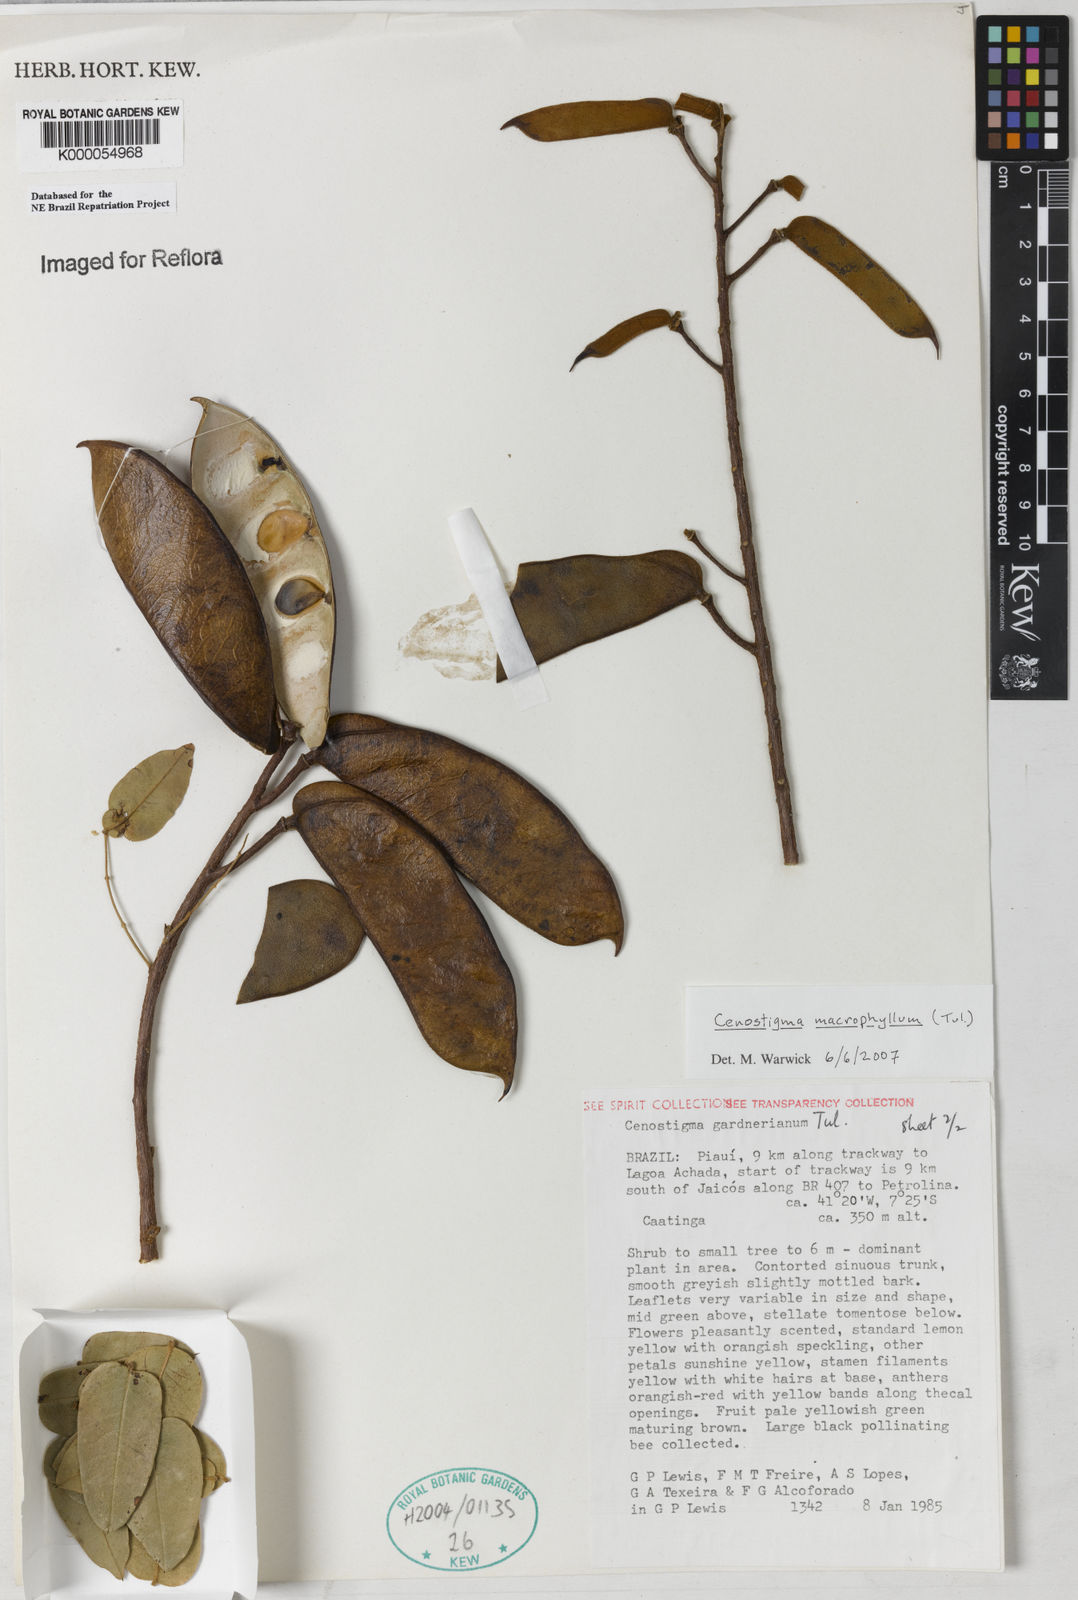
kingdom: Plantae
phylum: Tracheophyta
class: Magnoliopsida
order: Fabales
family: Fabaceae
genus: Cenostigma
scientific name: Cenostigma macrophyllum
